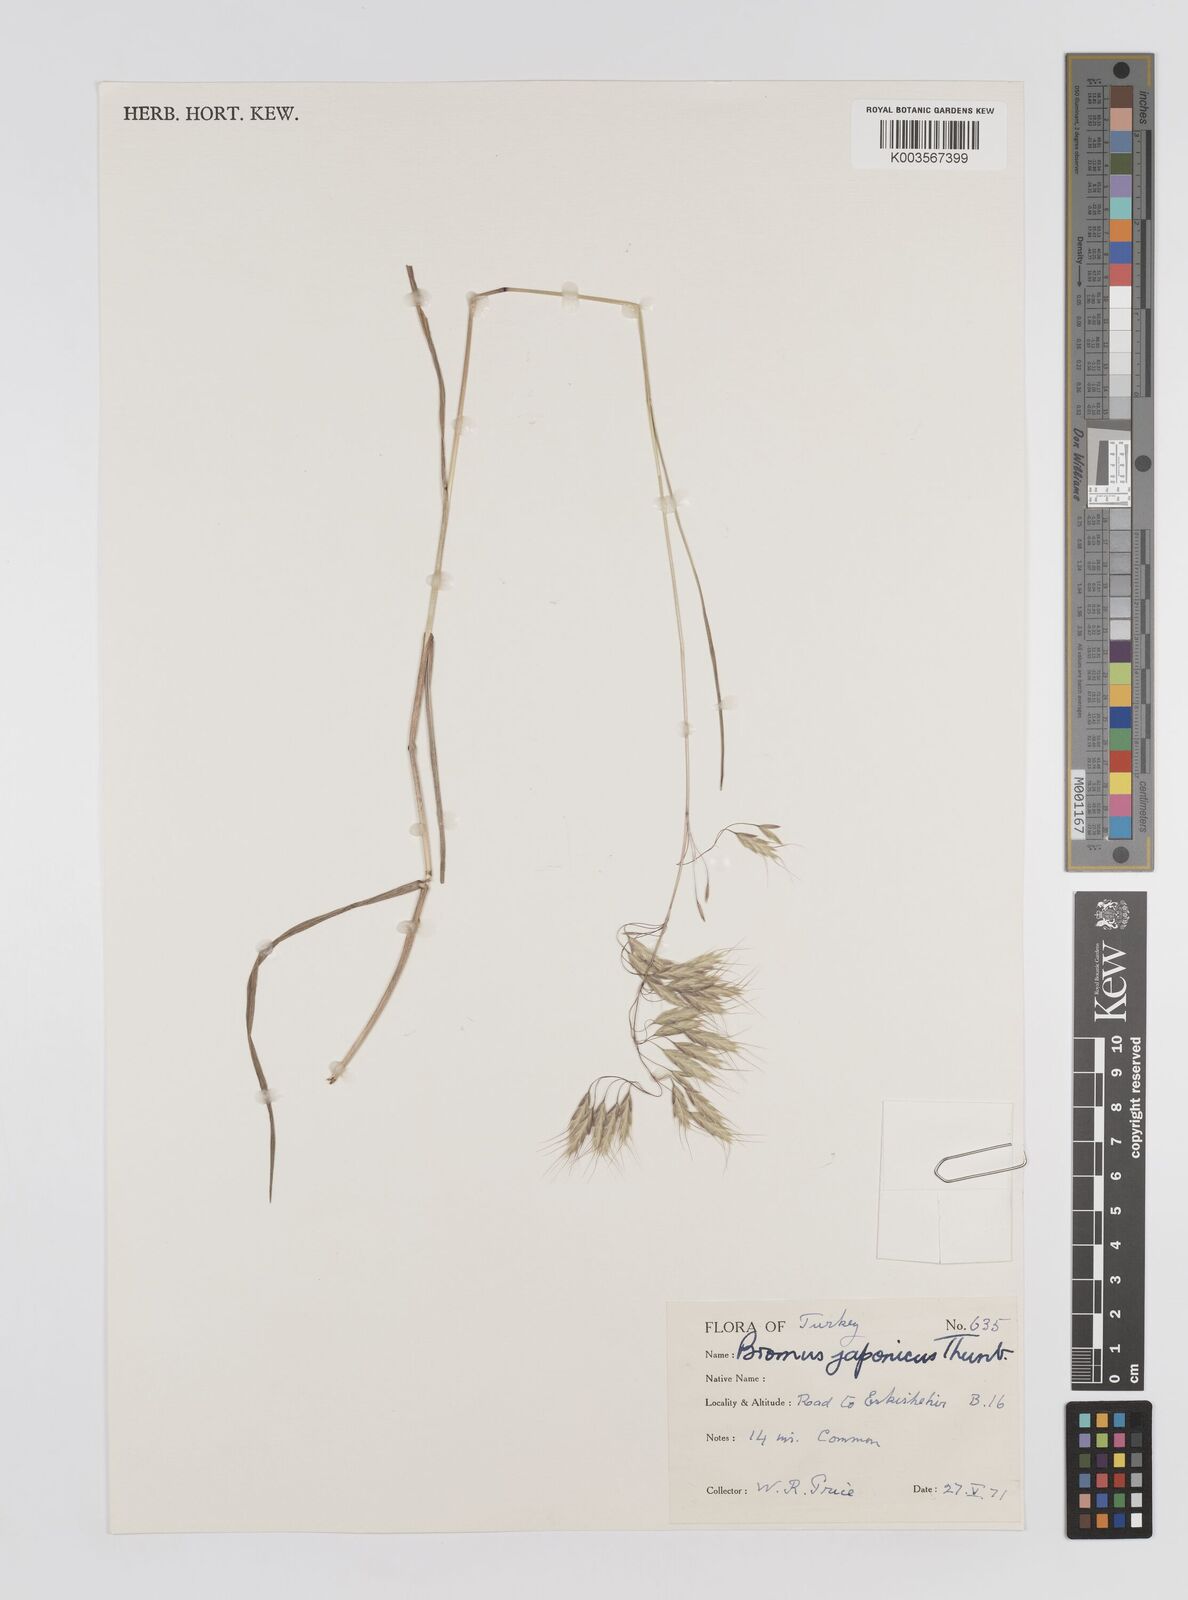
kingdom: Plantae
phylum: Tracheophyta
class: Liliopsida
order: Poales
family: Poaceae
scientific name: Poaceae
